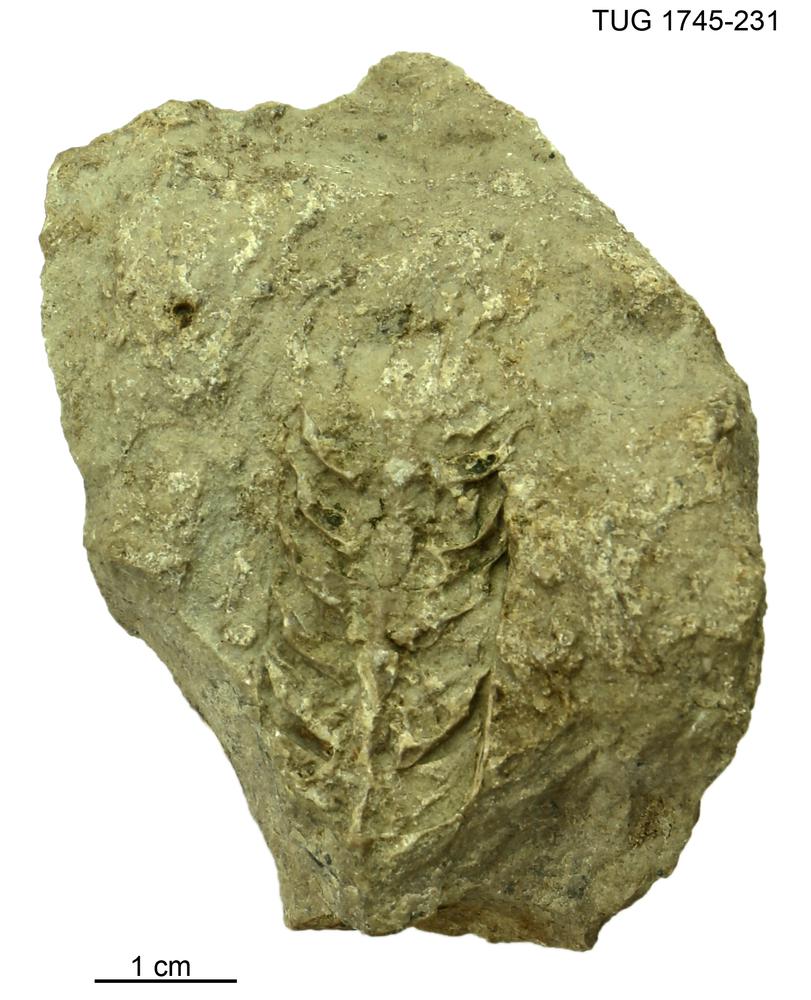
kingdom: Animalia
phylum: Mollusca
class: Cephalopoda
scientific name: Cephalopoda
